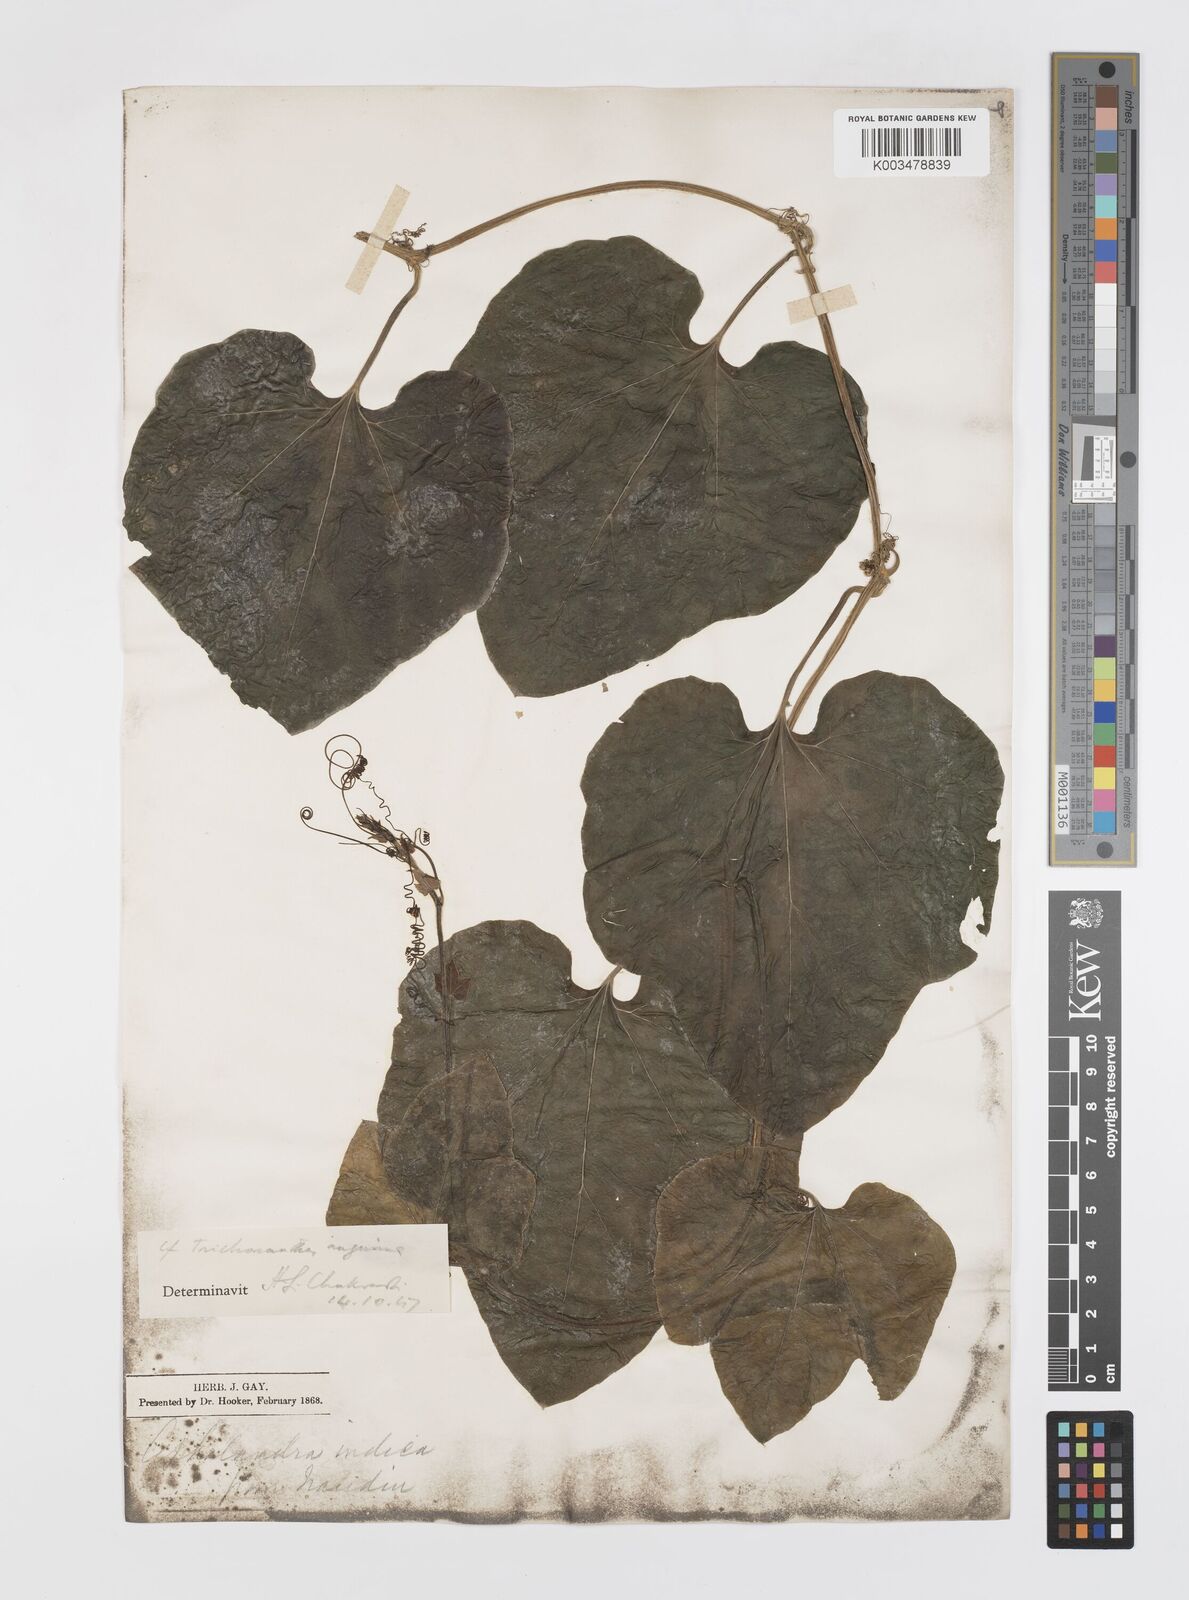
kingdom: Plantae
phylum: Tracheophyta
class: Magnoliopsida
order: Cucurbitales
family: Cucurbitaceae
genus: Trichosanthes
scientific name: Trichosanthes cucumerina
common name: Snakegourd
